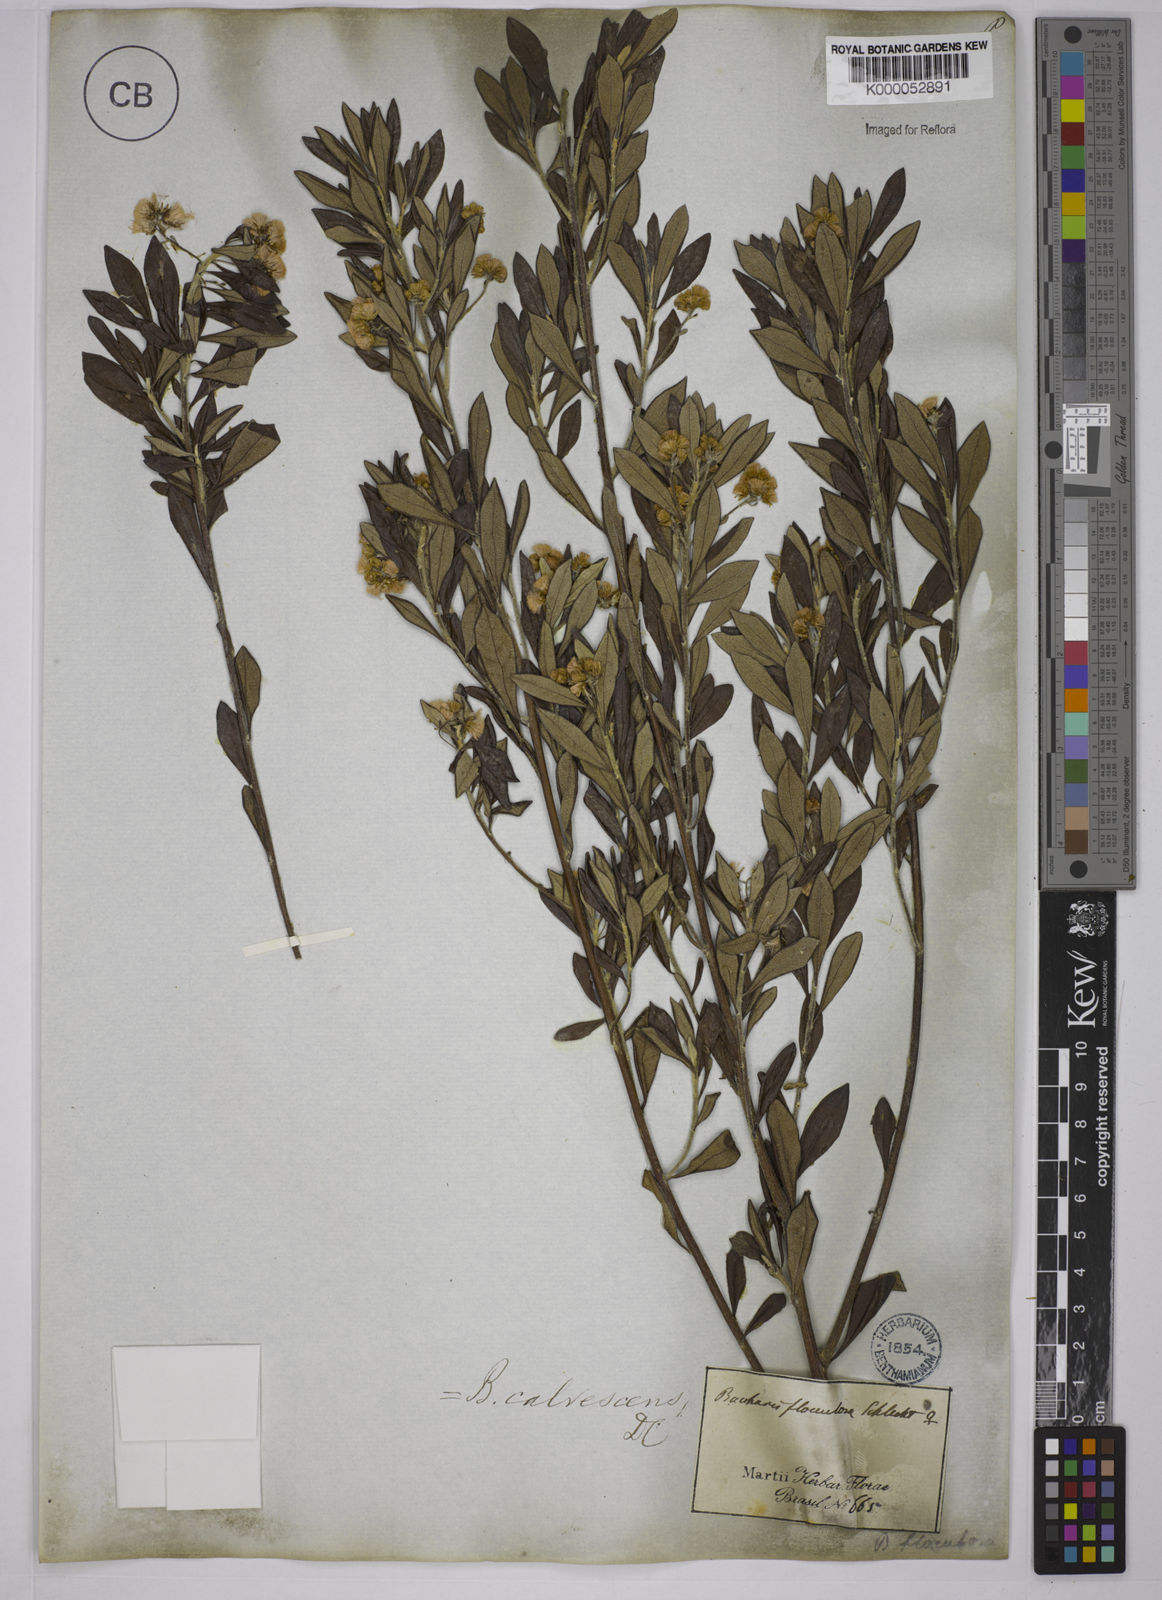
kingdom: Plantae
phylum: Tracheophyta
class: Magnoliopsida
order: Asterales
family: Asteraceae
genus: Baccharis
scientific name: Baccharis calvescens
